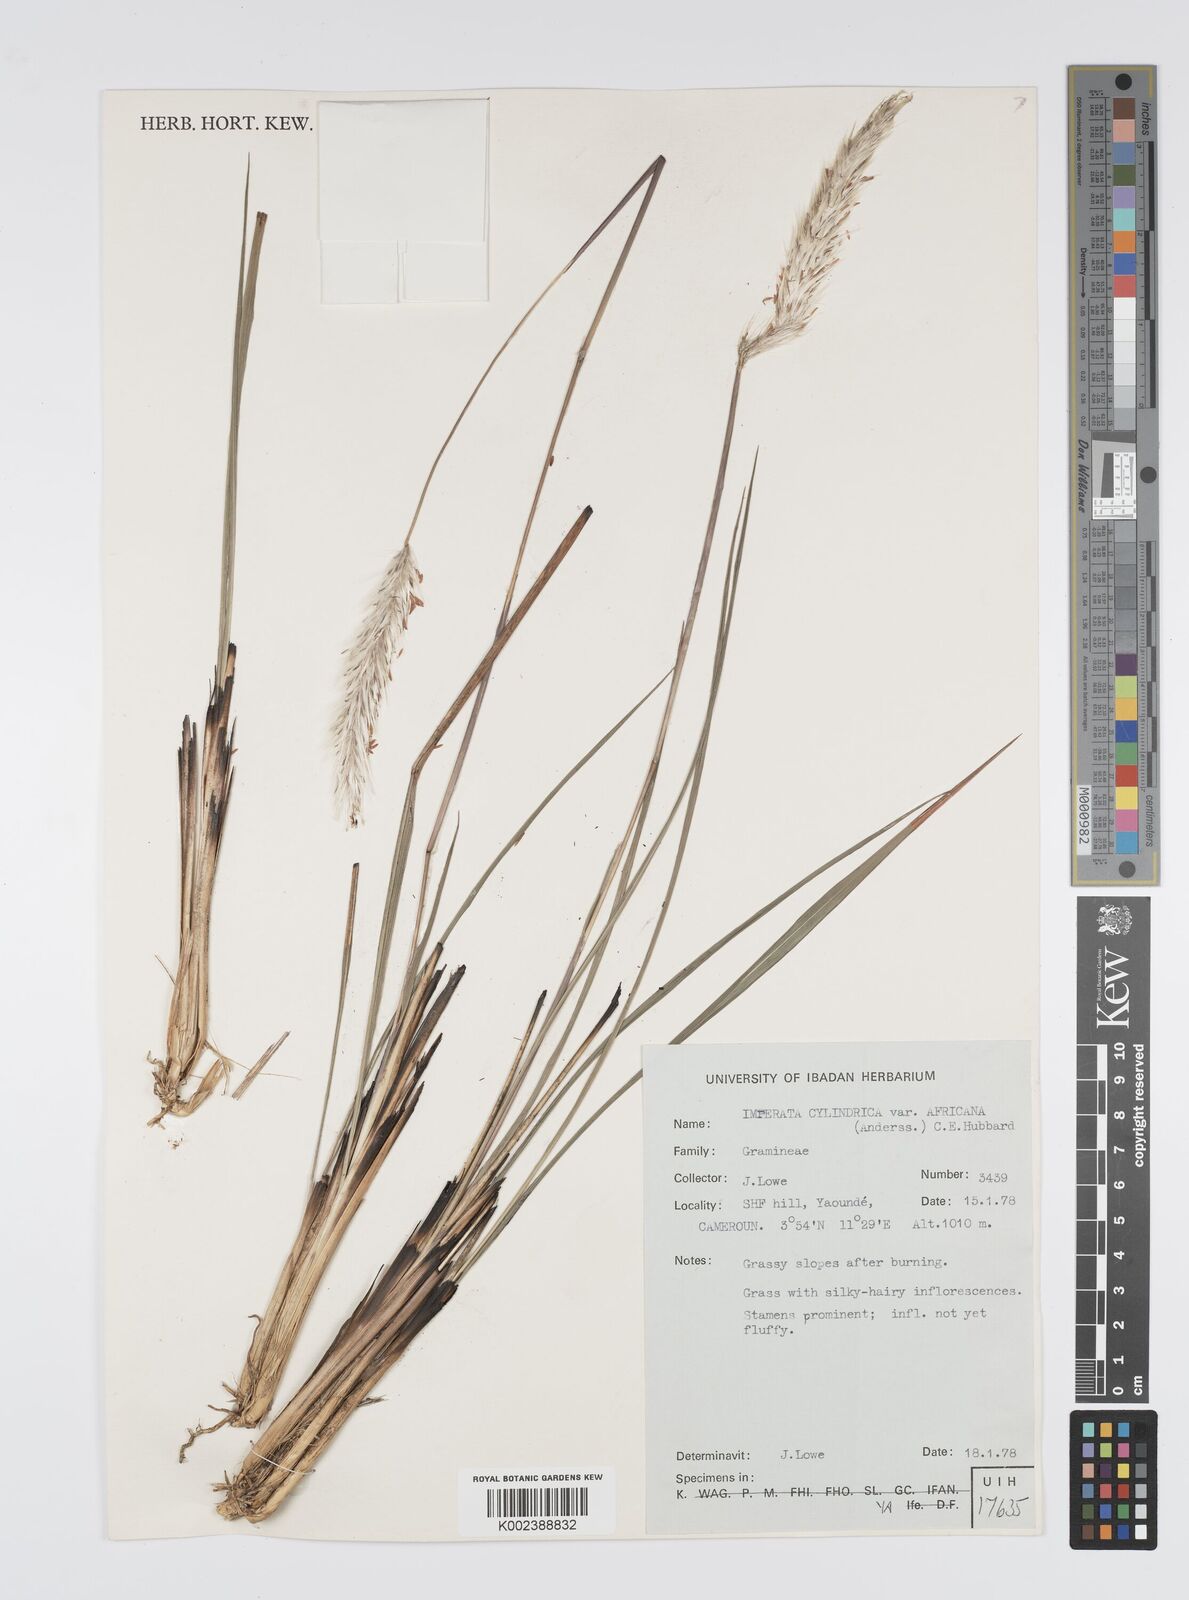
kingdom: Plantae
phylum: Tracheophyta
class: Liliopsida
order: Poales
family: Poaceae
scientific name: Poaceae
